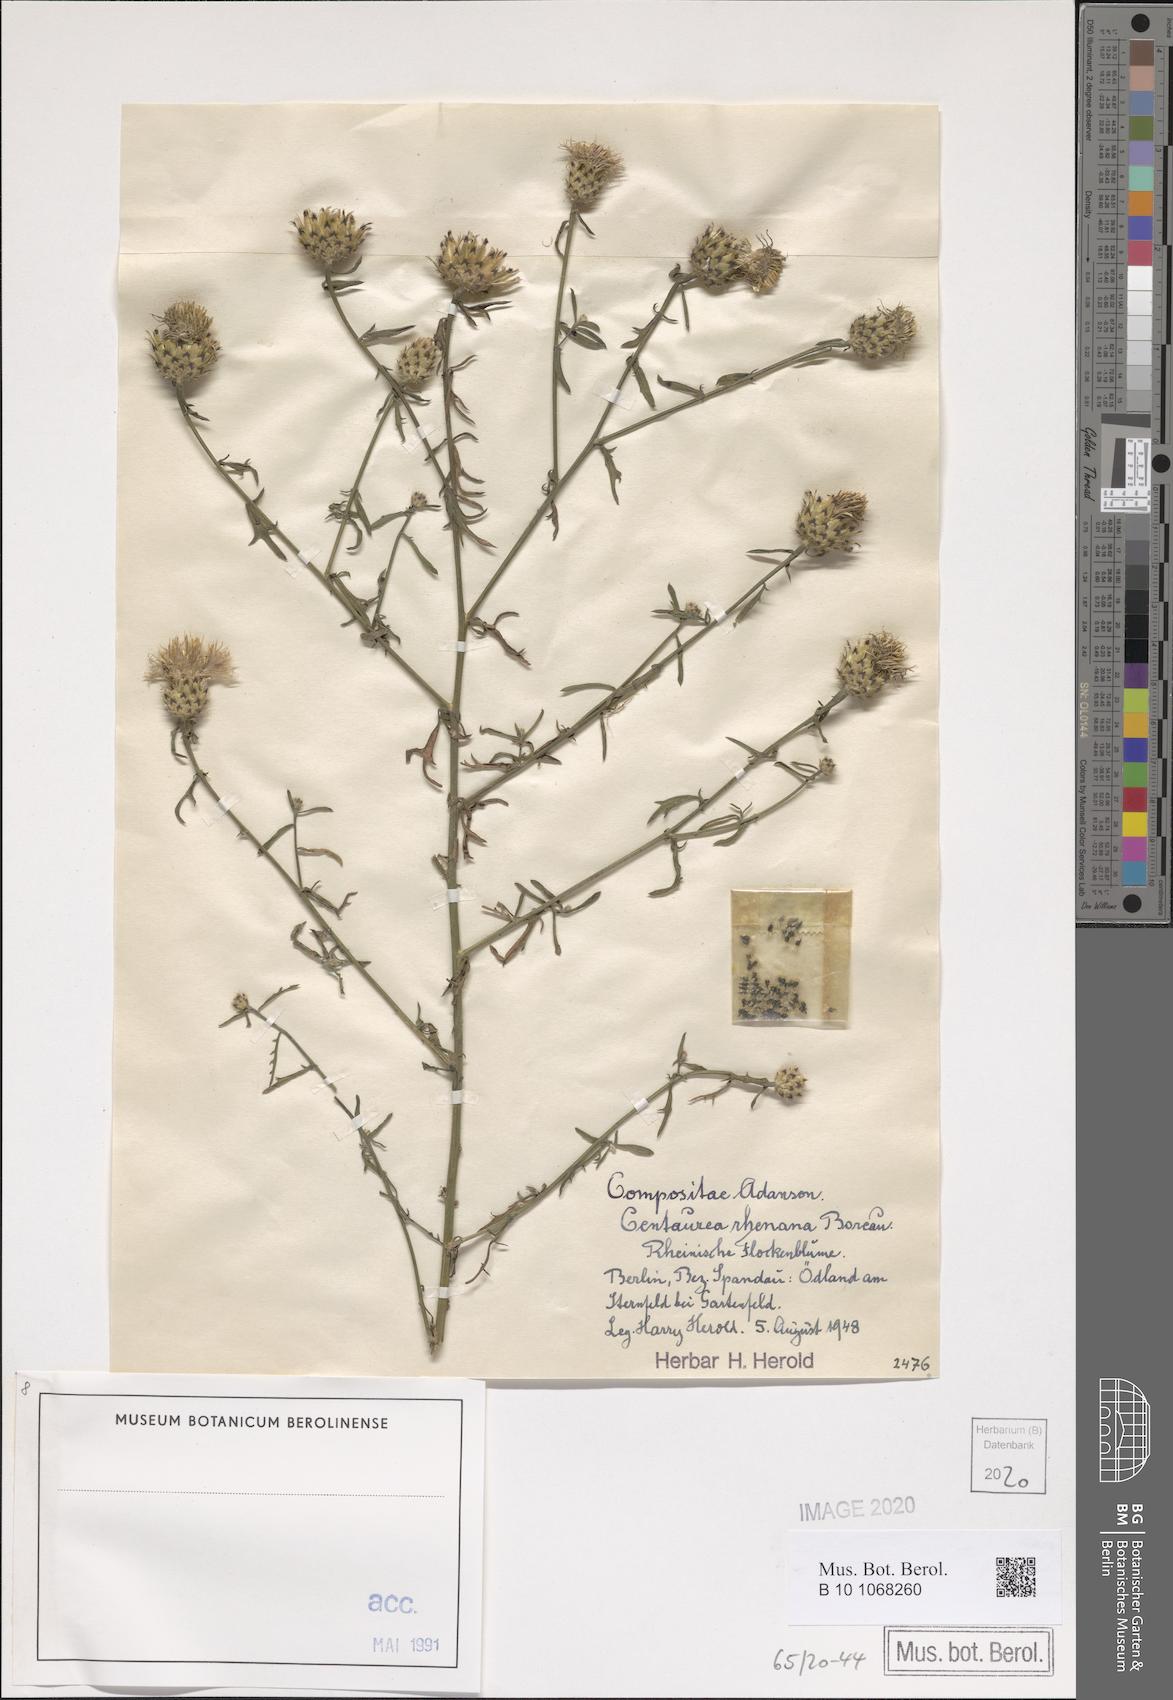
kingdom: Plantae
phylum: Tracheophyta
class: Magnoliopsida
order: Asterales
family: Asteraceae
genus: Centaurea
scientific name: Centaurea stoebe
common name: Spotted knapweed
